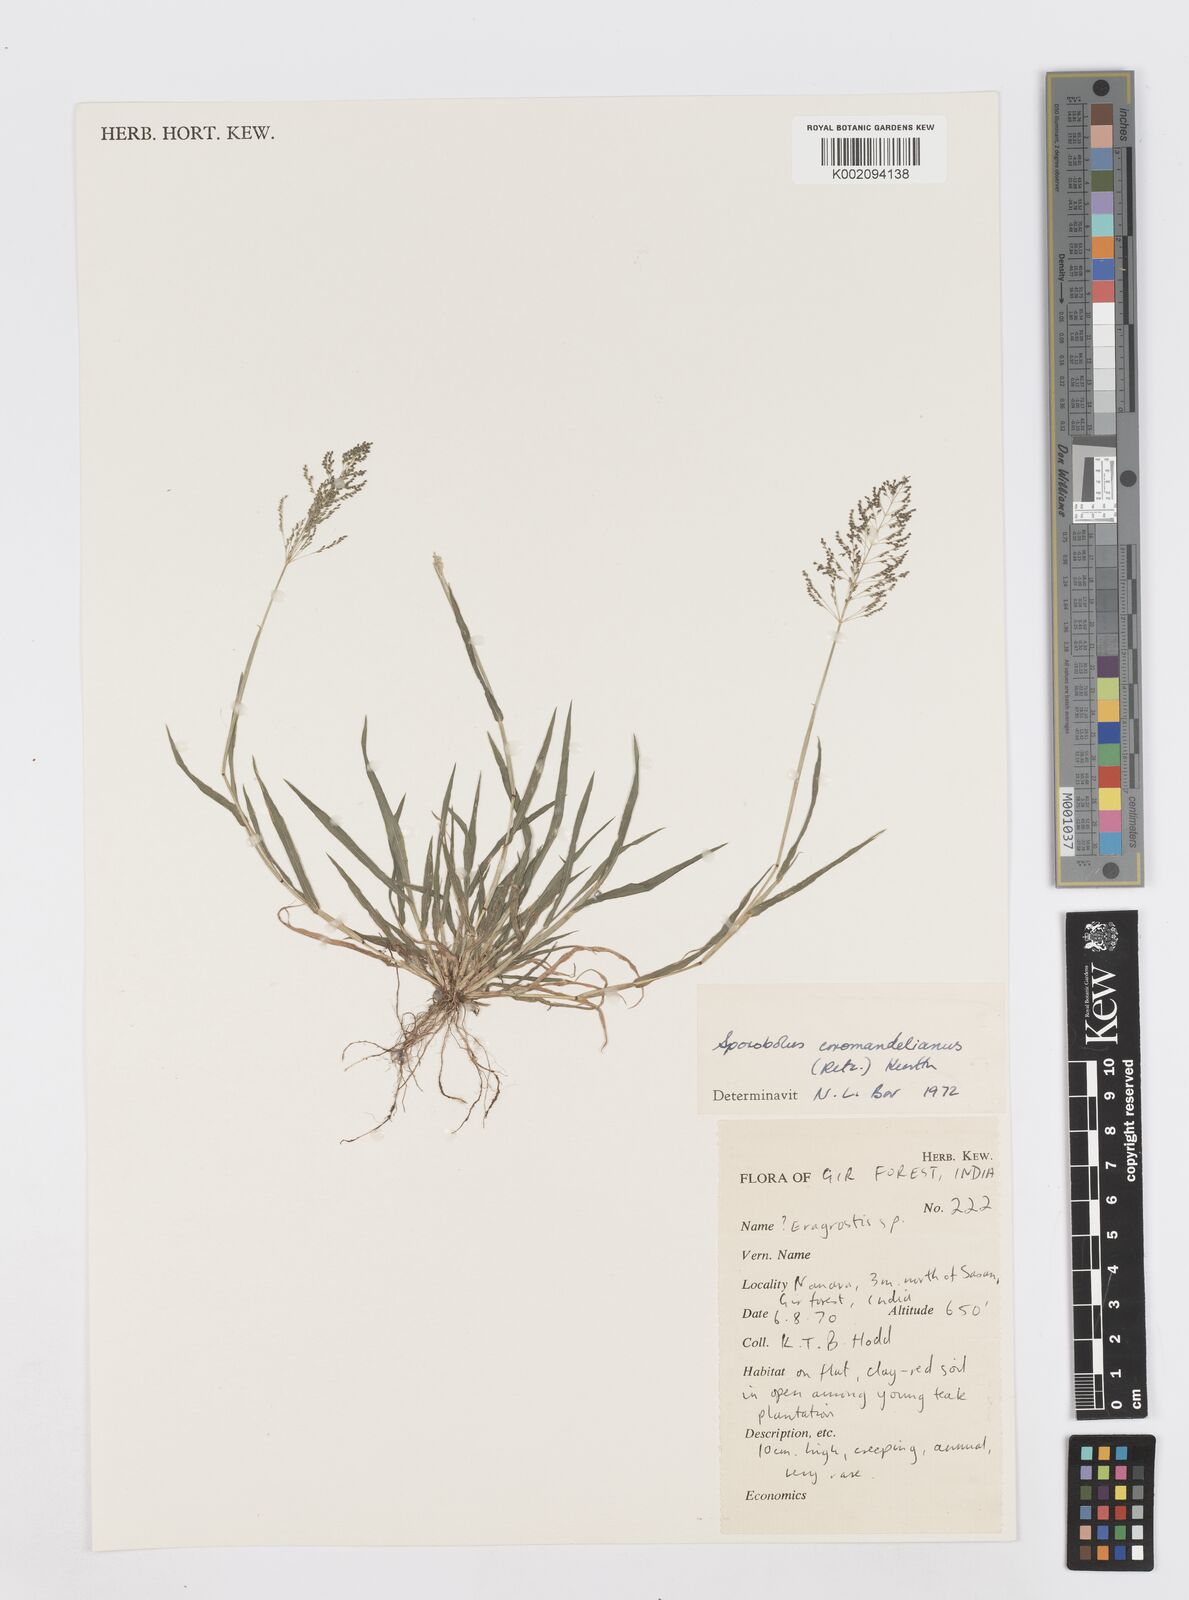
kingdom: Plantae
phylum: Tracheophyta
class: Liliopsida
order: Poales
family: Poaceae
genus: Sporobolus
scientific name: Sporobolus coromandelianus
